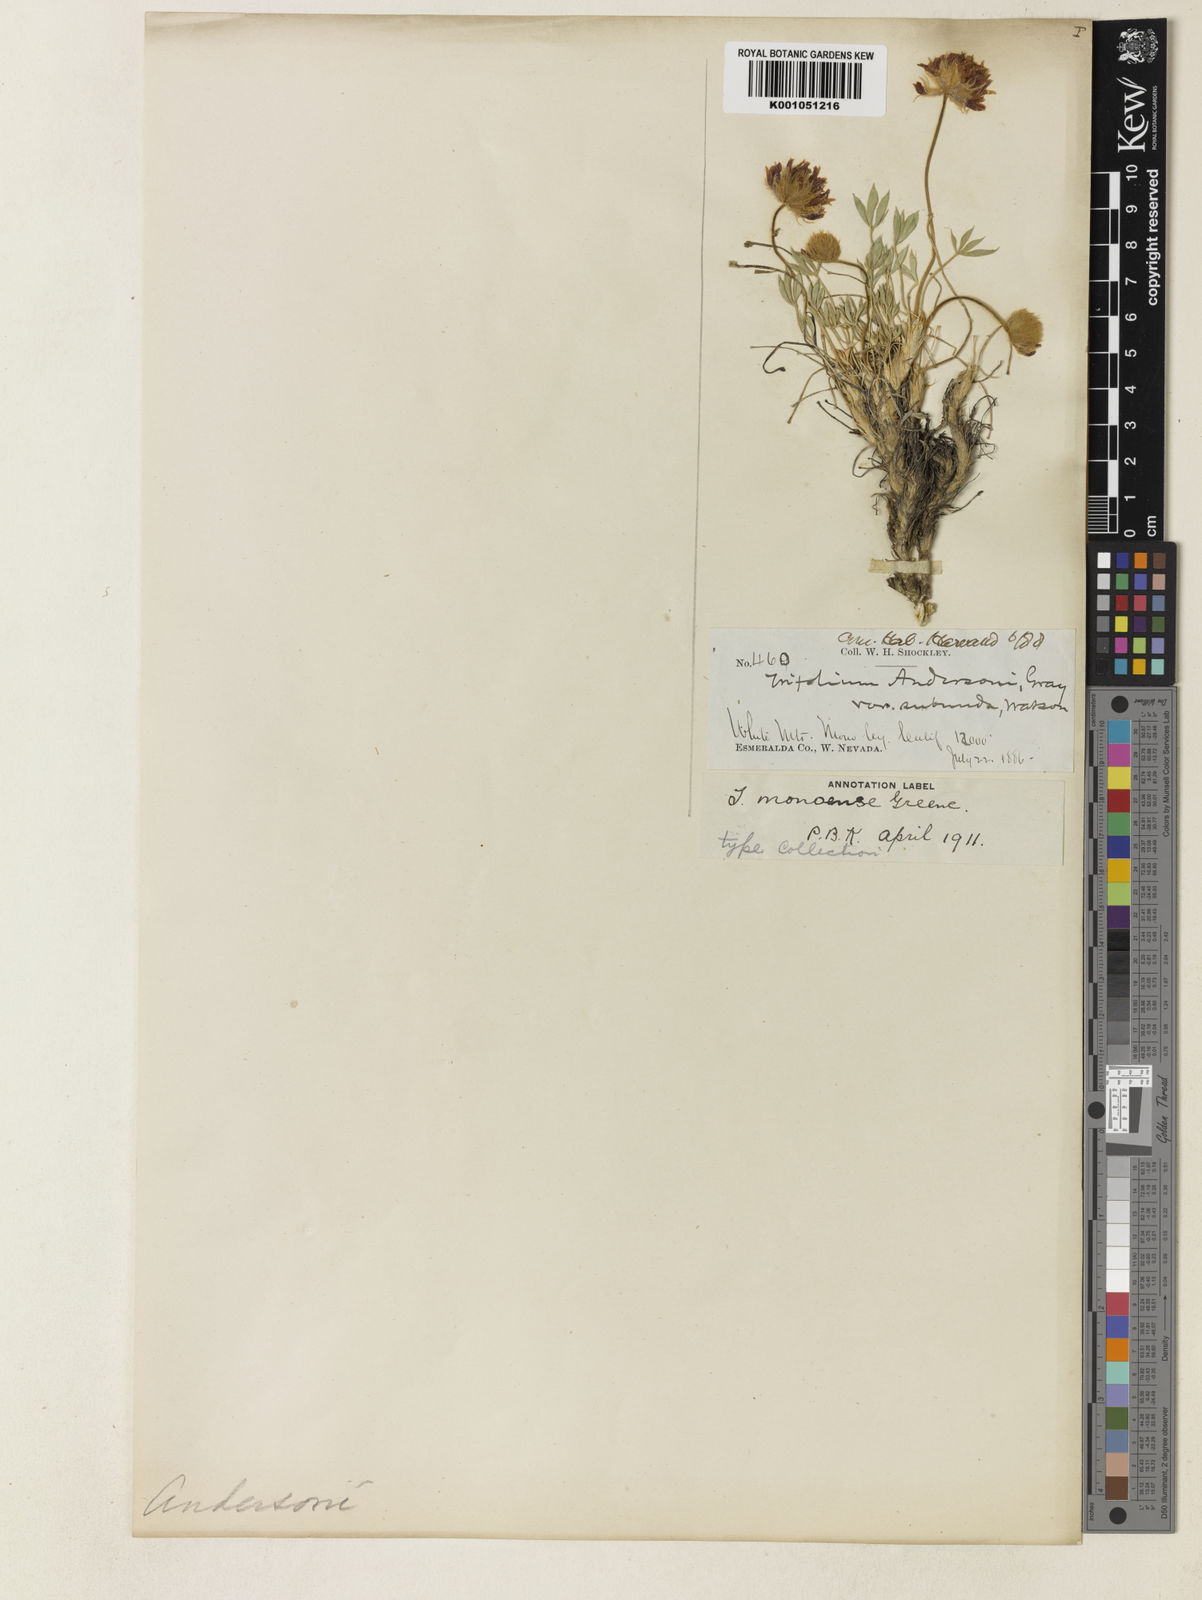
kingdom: Plantae
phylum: Tracheophyta
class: Magnoliopsida
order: Fabales
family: Fabaceae
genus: Trifolium
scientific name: Trifolium andersonii
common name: Anderson's clover
